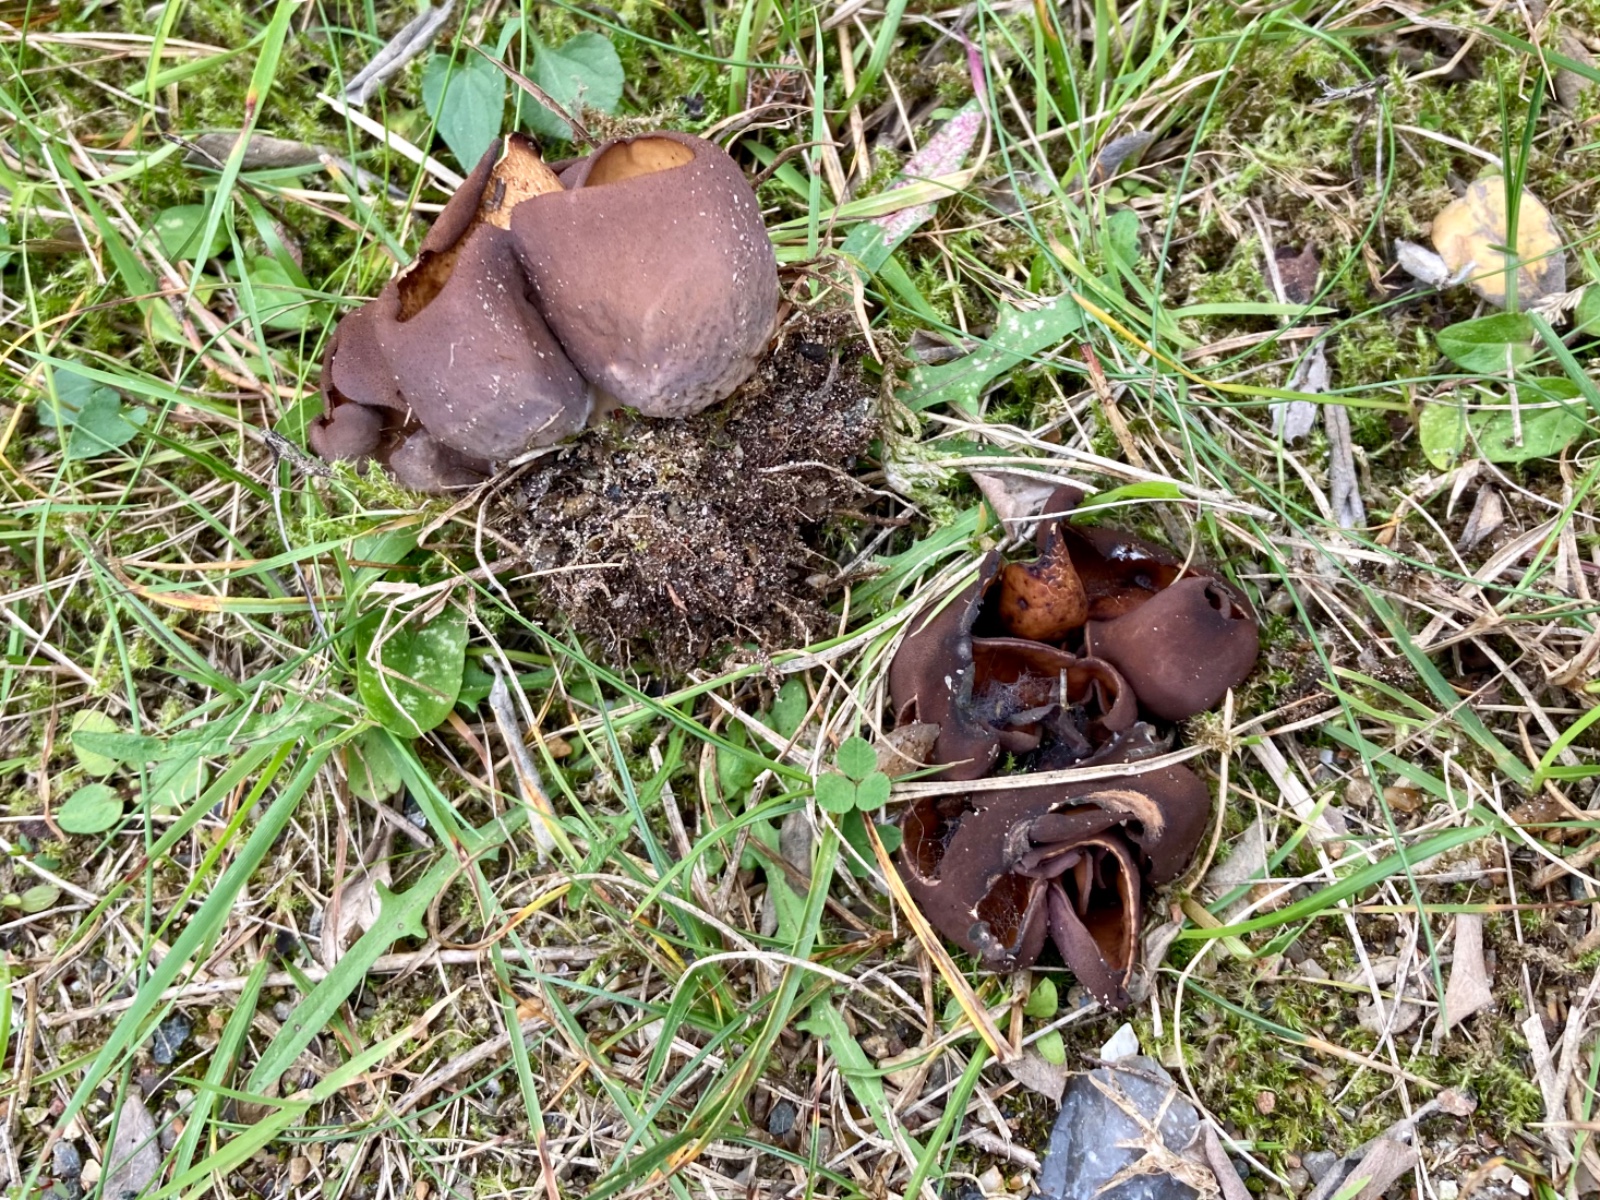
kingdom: Fungi
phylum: Ascomycota
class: Pezizomycetes
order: Pezizales
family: Otideaceae
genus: Otidea
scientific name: Otidea bufonia
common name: brun ørebæger
